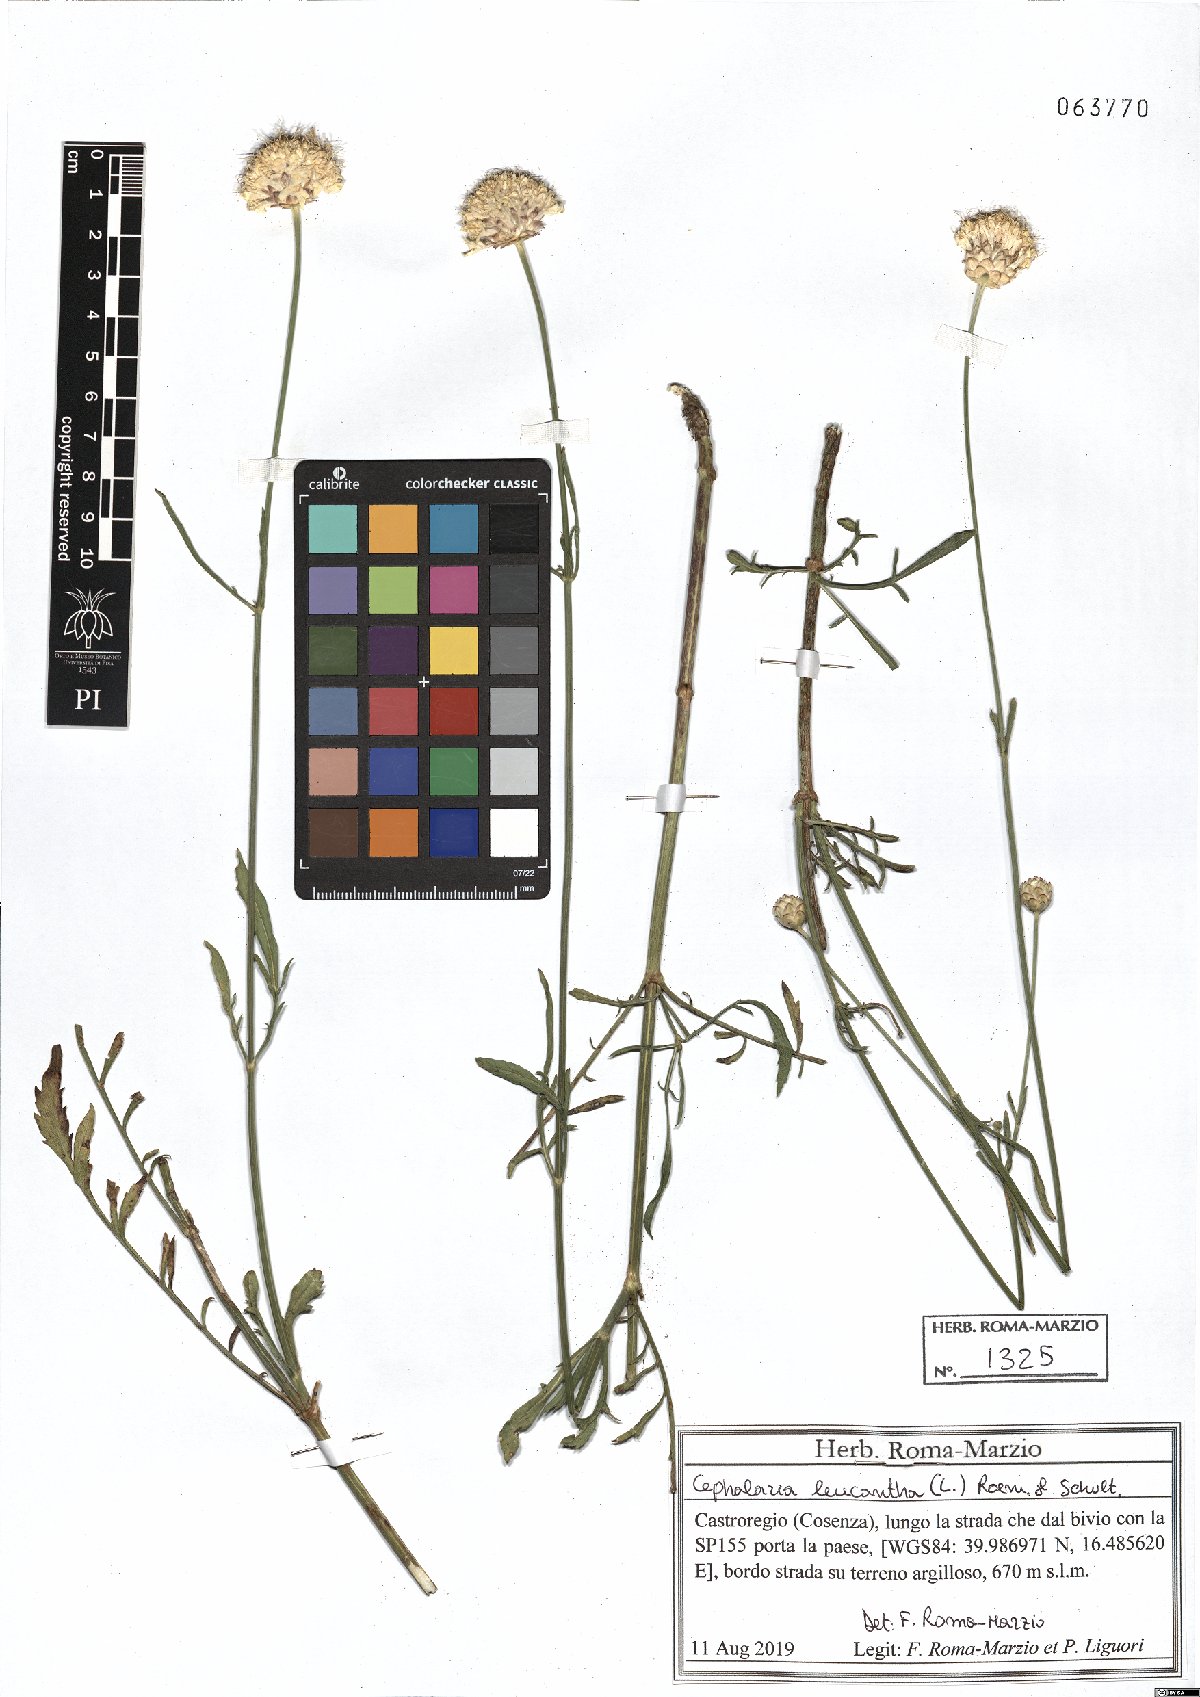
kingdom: Plantae
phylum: Tracheophyta
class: Magnoliopsida
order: Dipsacales
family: Dipsacaceae
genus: Cephalaria
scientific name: Cephalaria leucantha
